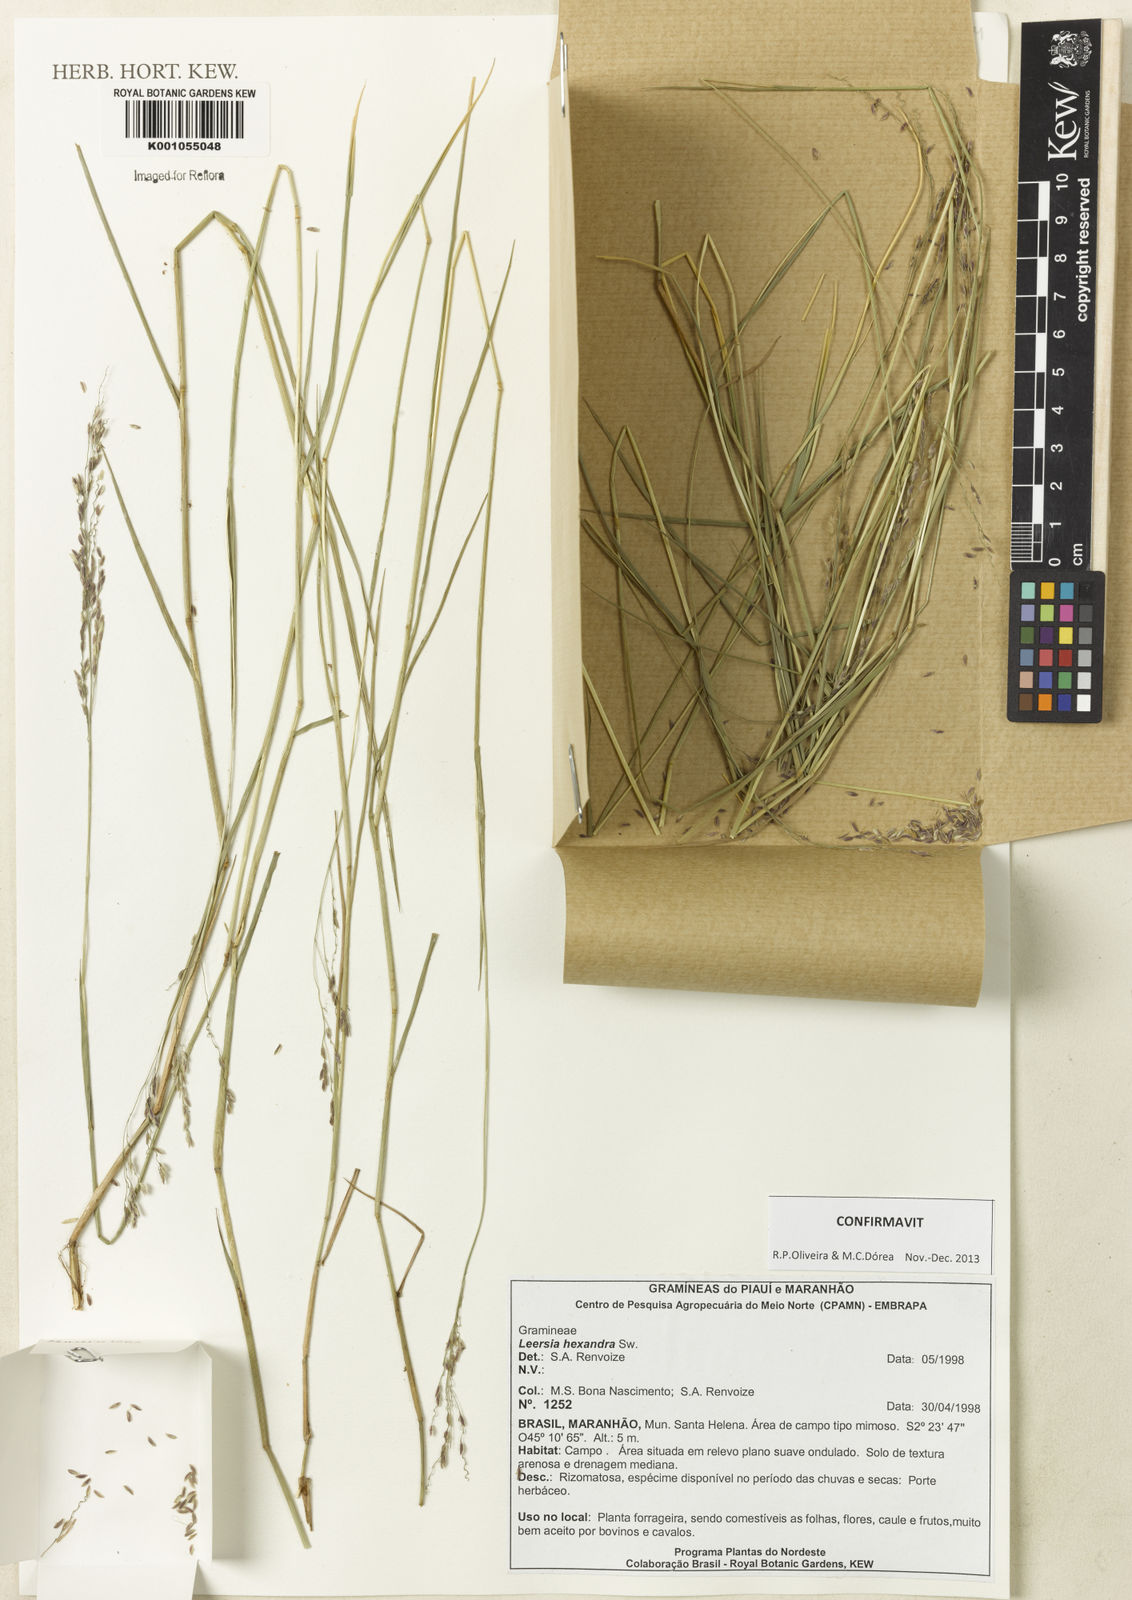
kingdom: Plantae
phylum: Tracheophyta
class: Liliopsida
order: Poales
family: Poaceae
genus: Leersia
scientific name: Leersia hexandra
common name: Southern cut grass
